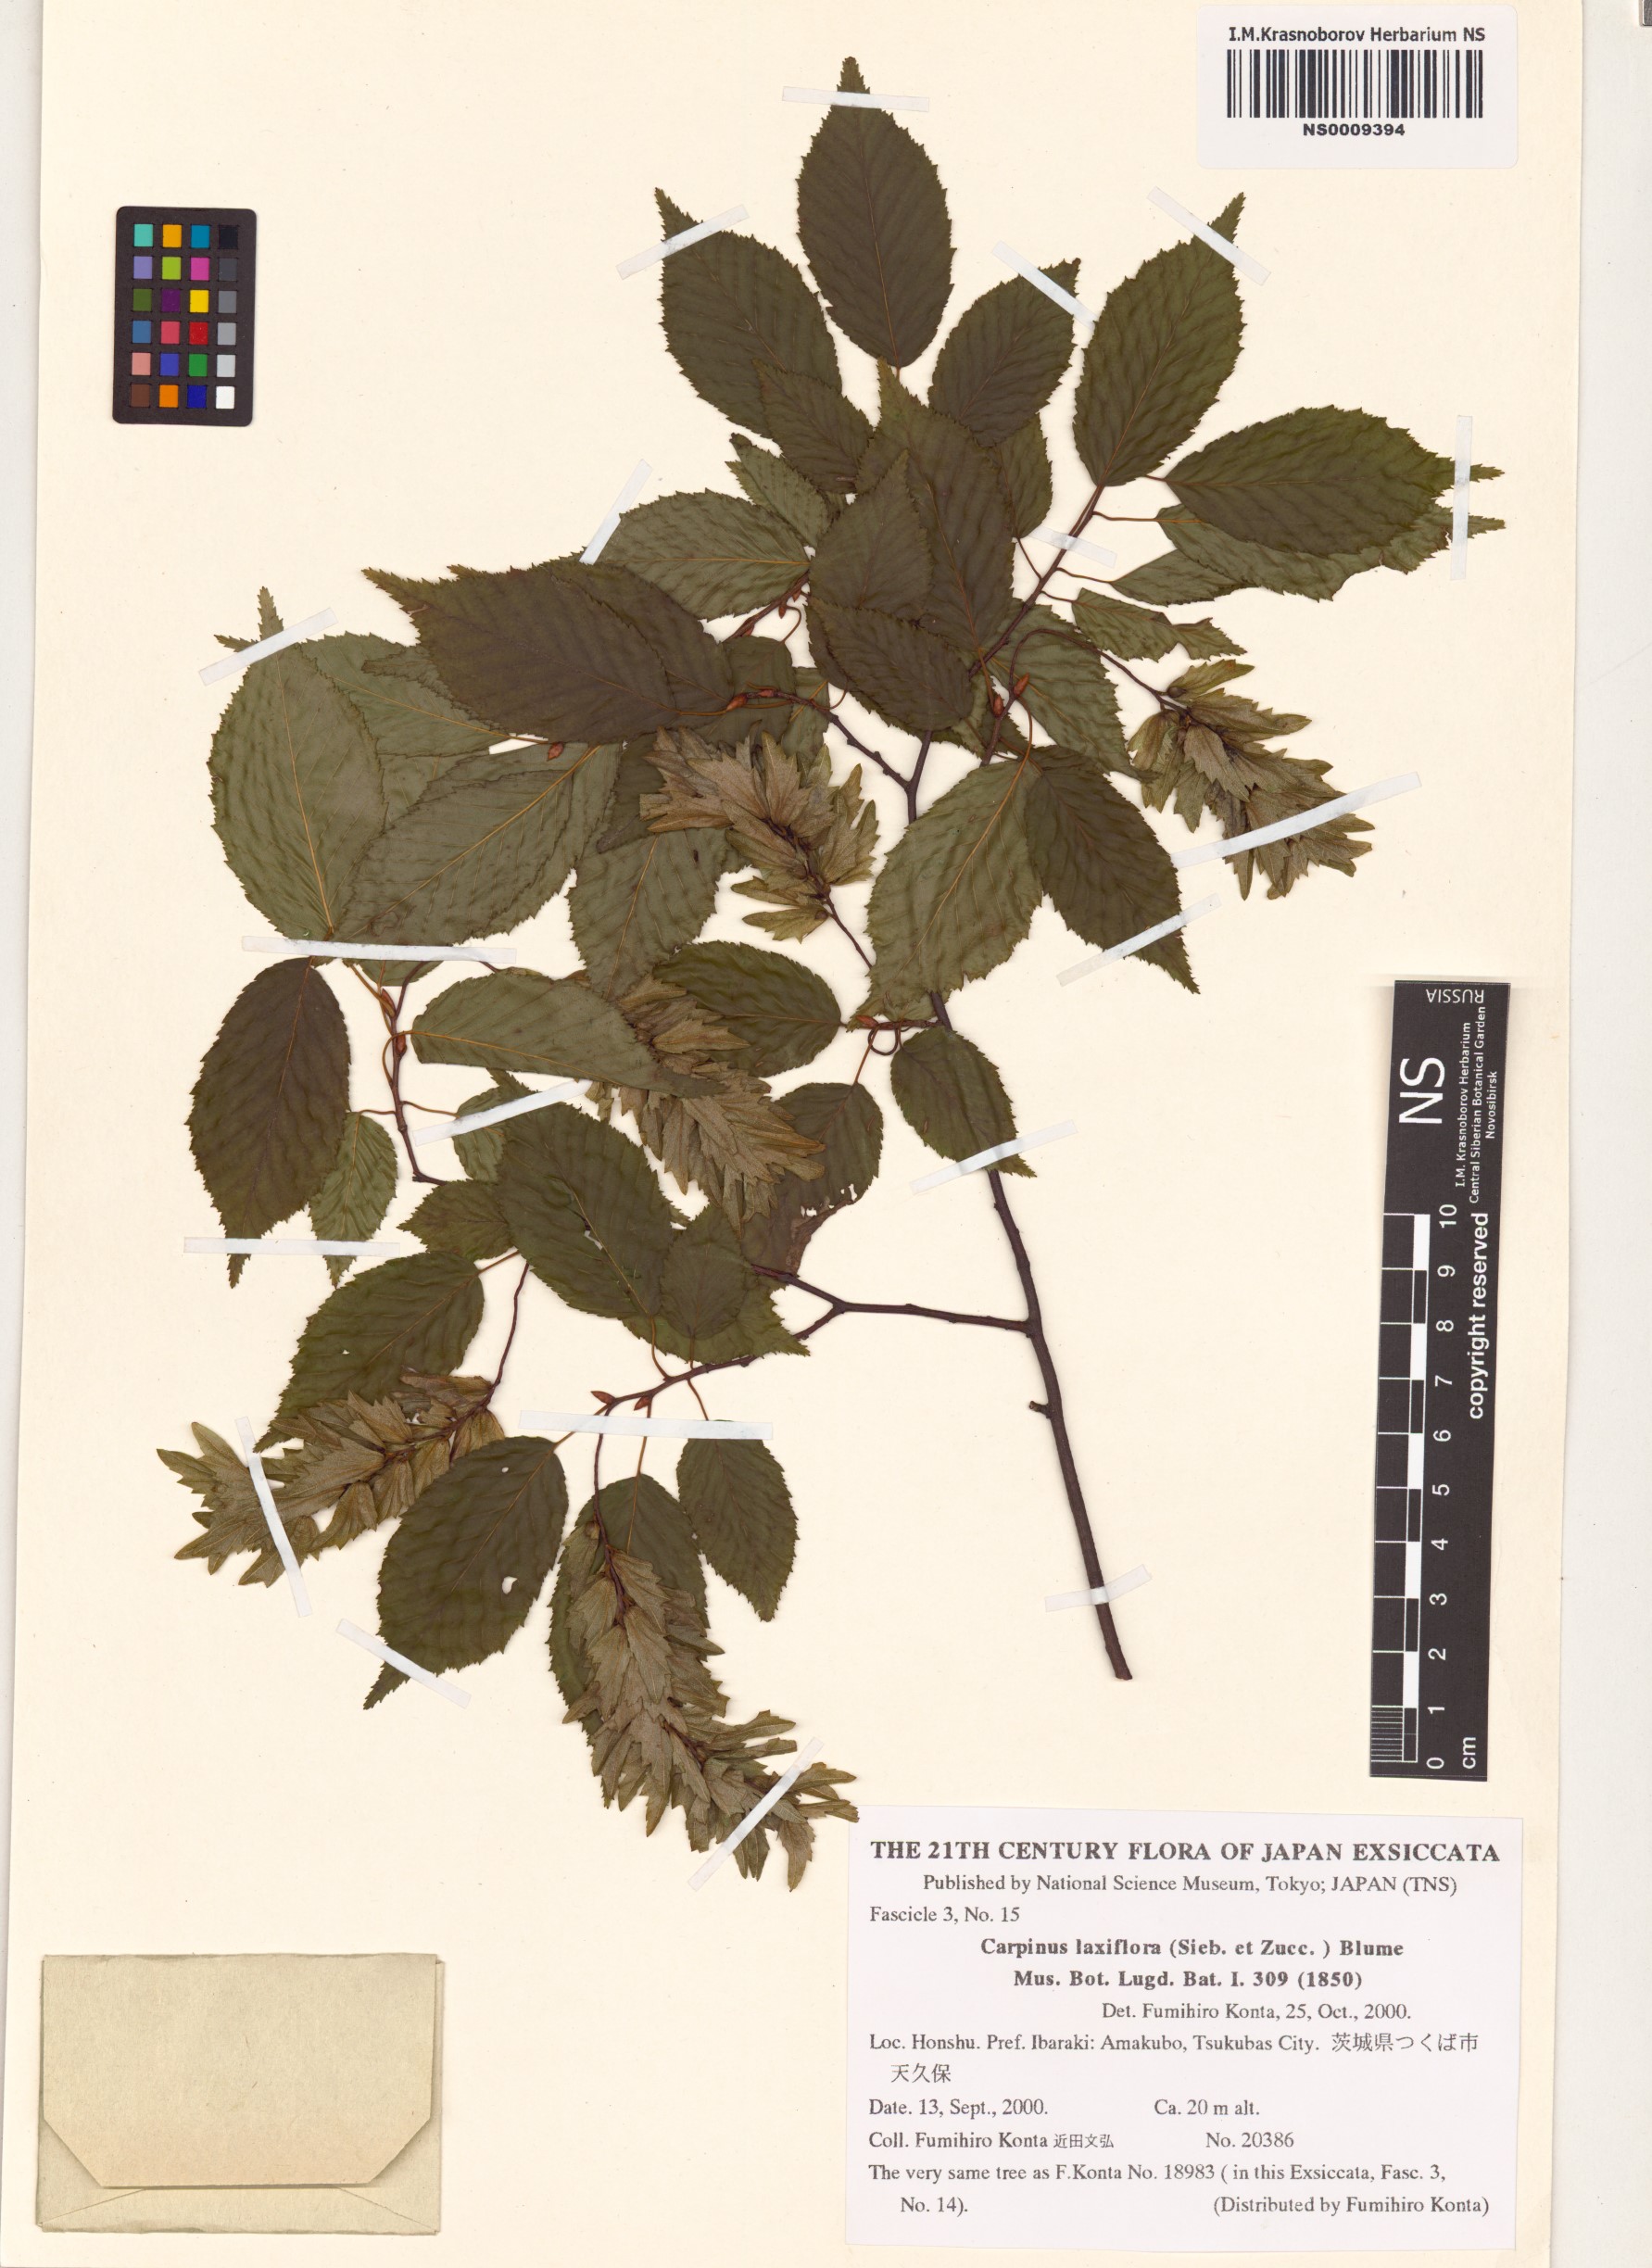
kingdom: Plantae
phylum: Tracheophyta
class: Magnoliopsida
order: Fagales
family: Betulaceae
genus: Carpinus
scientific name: Carpinus laxiflora
